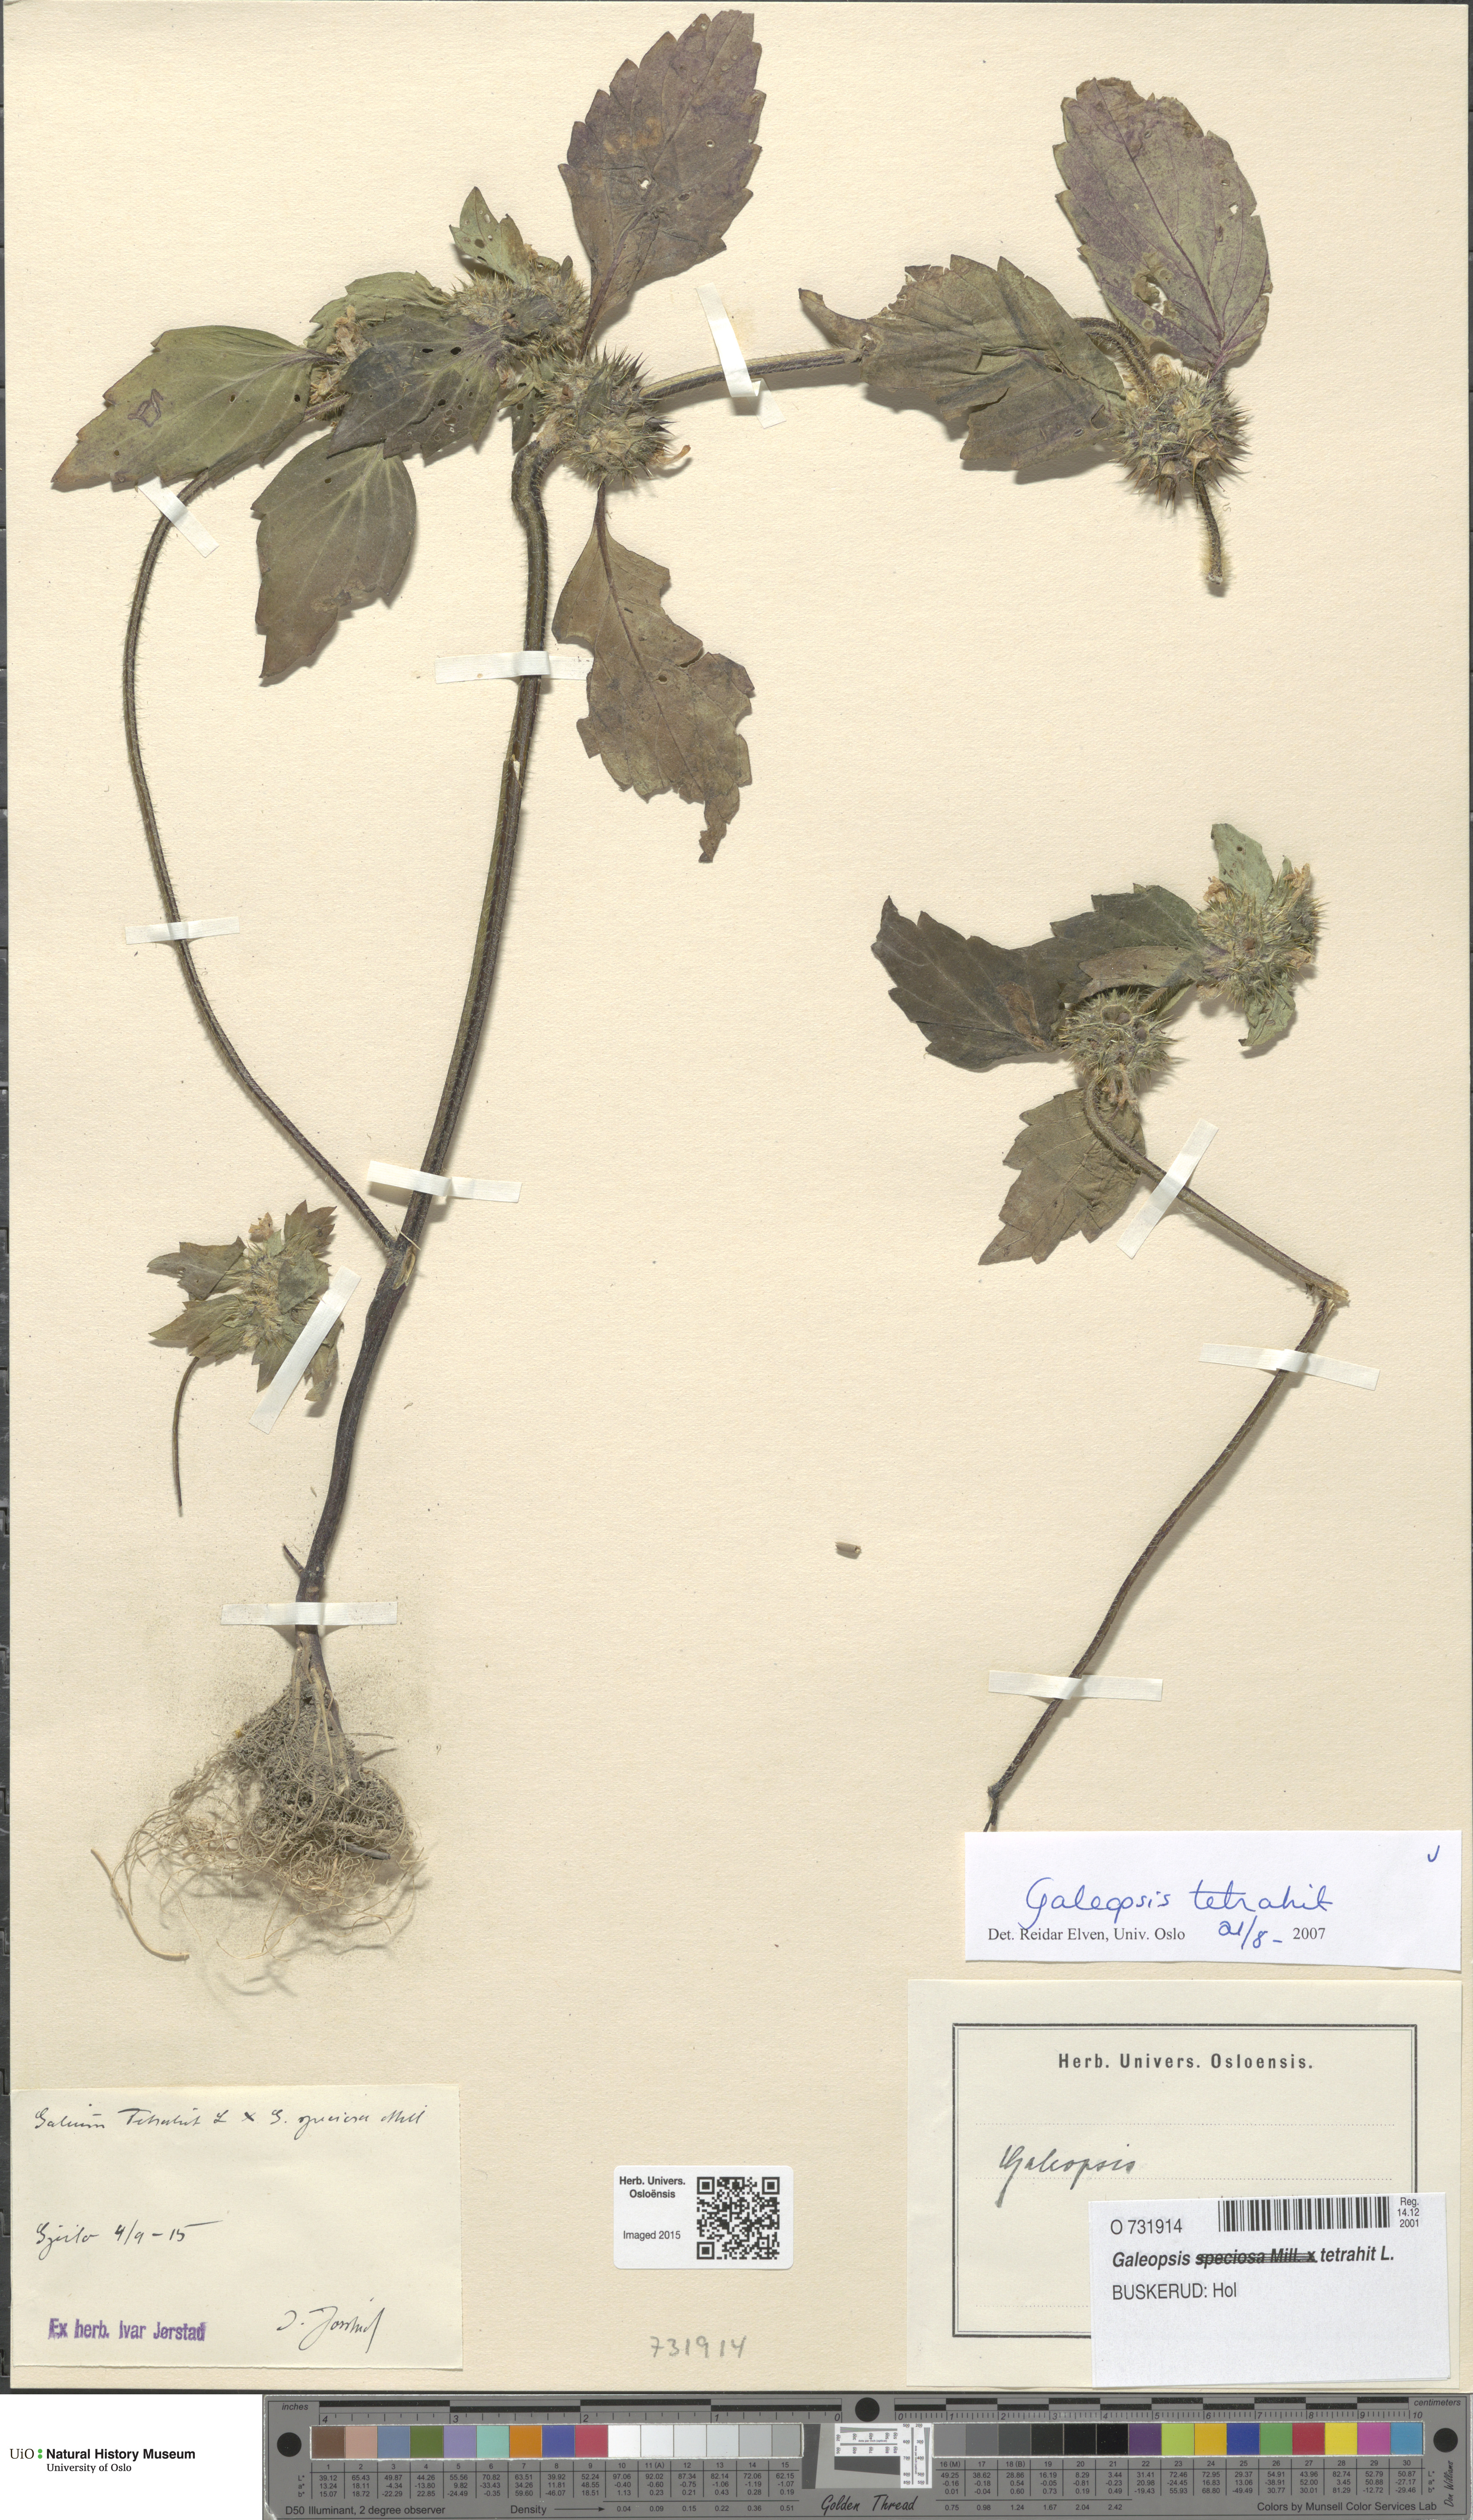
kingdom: Plantae
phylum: Tracheophyta
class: Magnoliopsida
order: Lamiales
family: Lamiaceae
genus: Galeopsis
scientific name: Galeopsis tetrahit
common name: Common hemp-nettle
